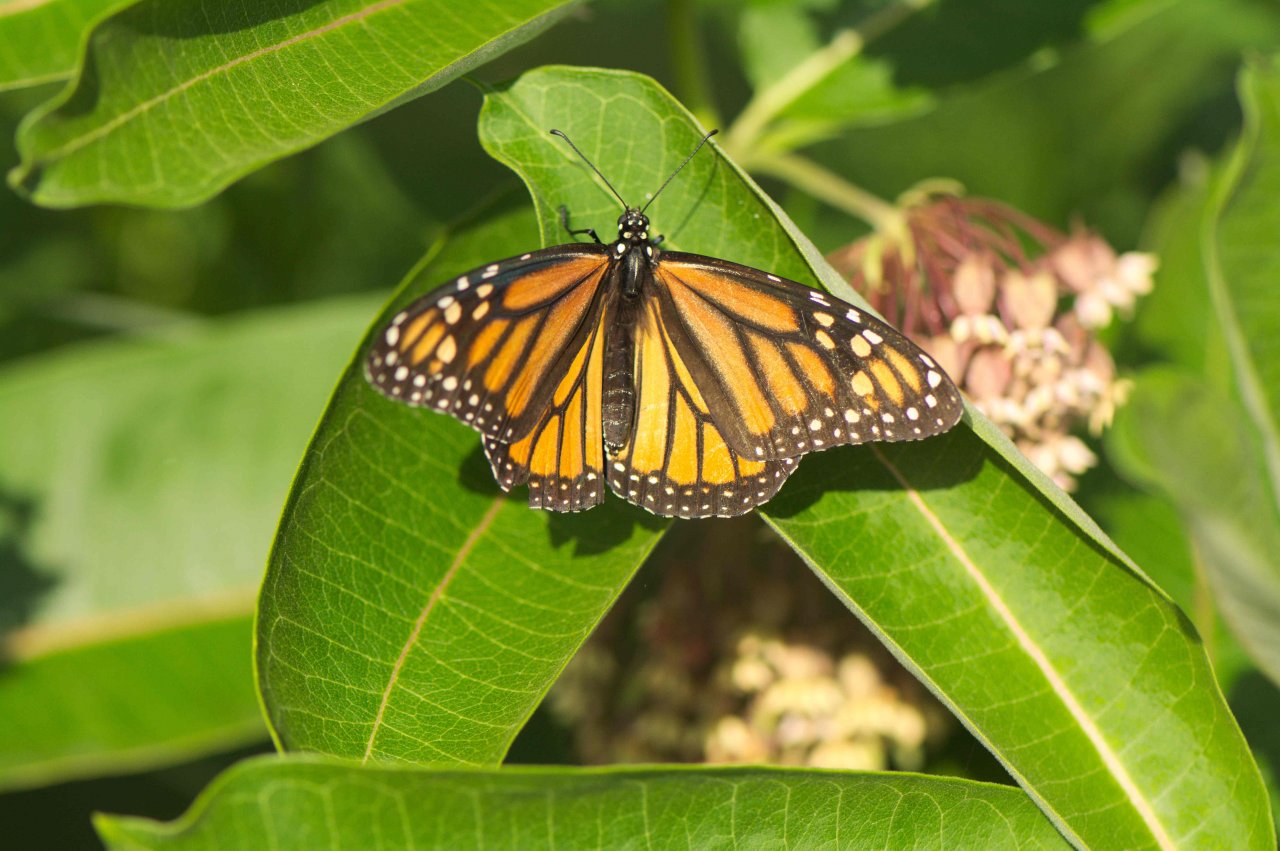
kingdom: Animalia
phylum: Arthropoda
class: Insecta
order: Lepidoptera
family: Nymphalidae
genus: Danaus
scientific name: Danaus plexippus
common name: Monarch
